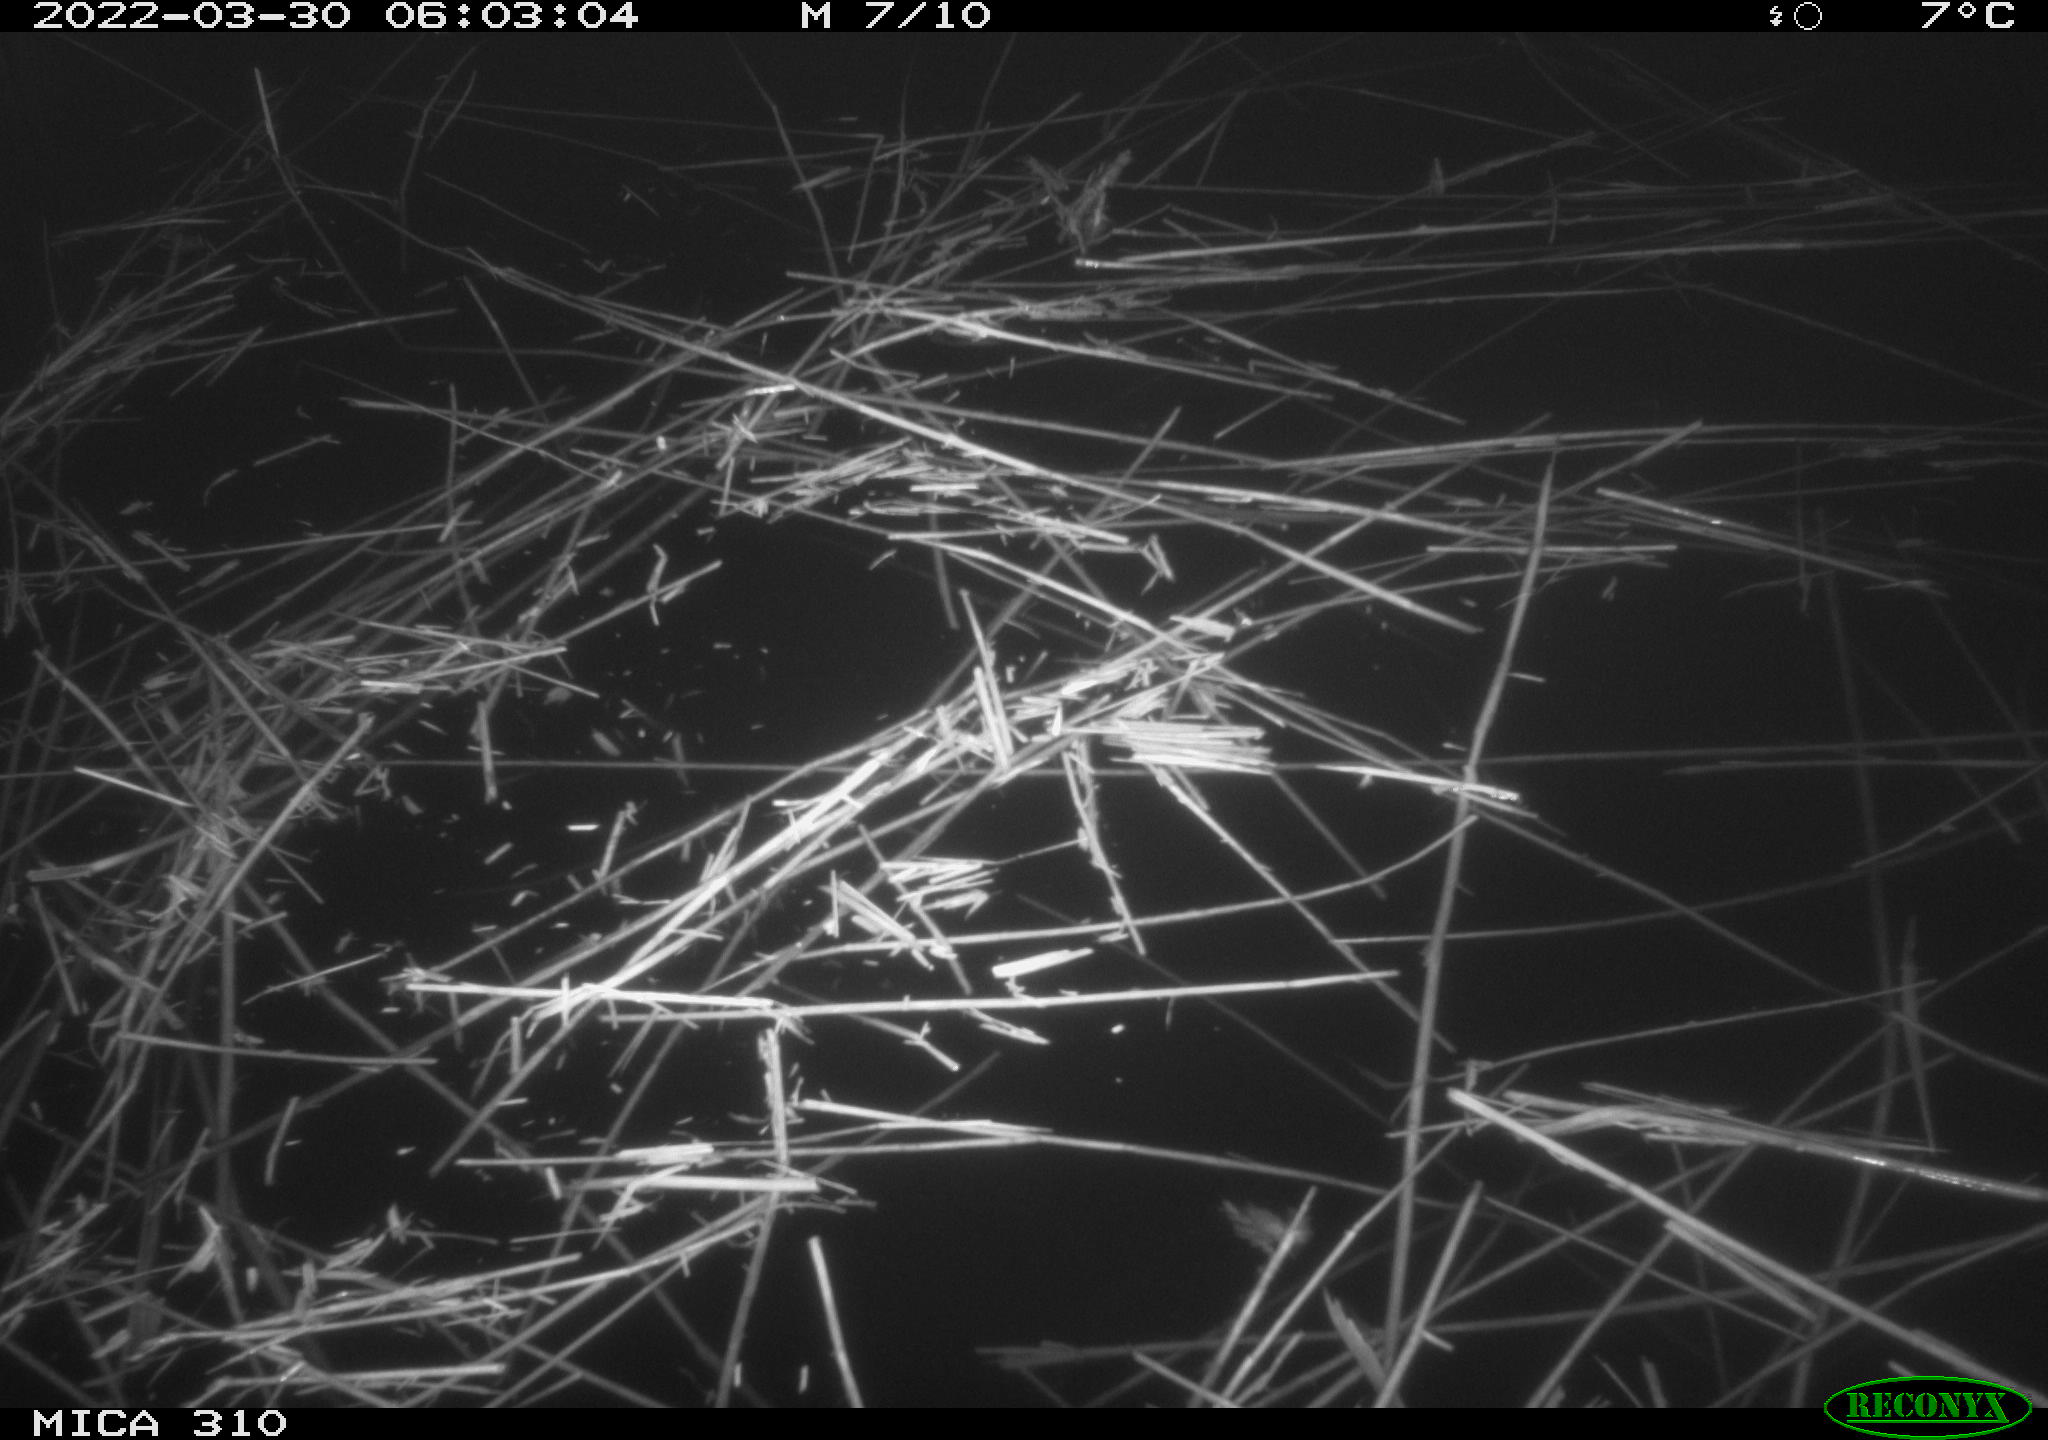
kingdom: Animalia
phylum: Chordata
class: Aves
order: Gruiformes
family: Rallidae
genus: Gallinula
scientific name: Gallinula chloropus
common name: Common moorhen
